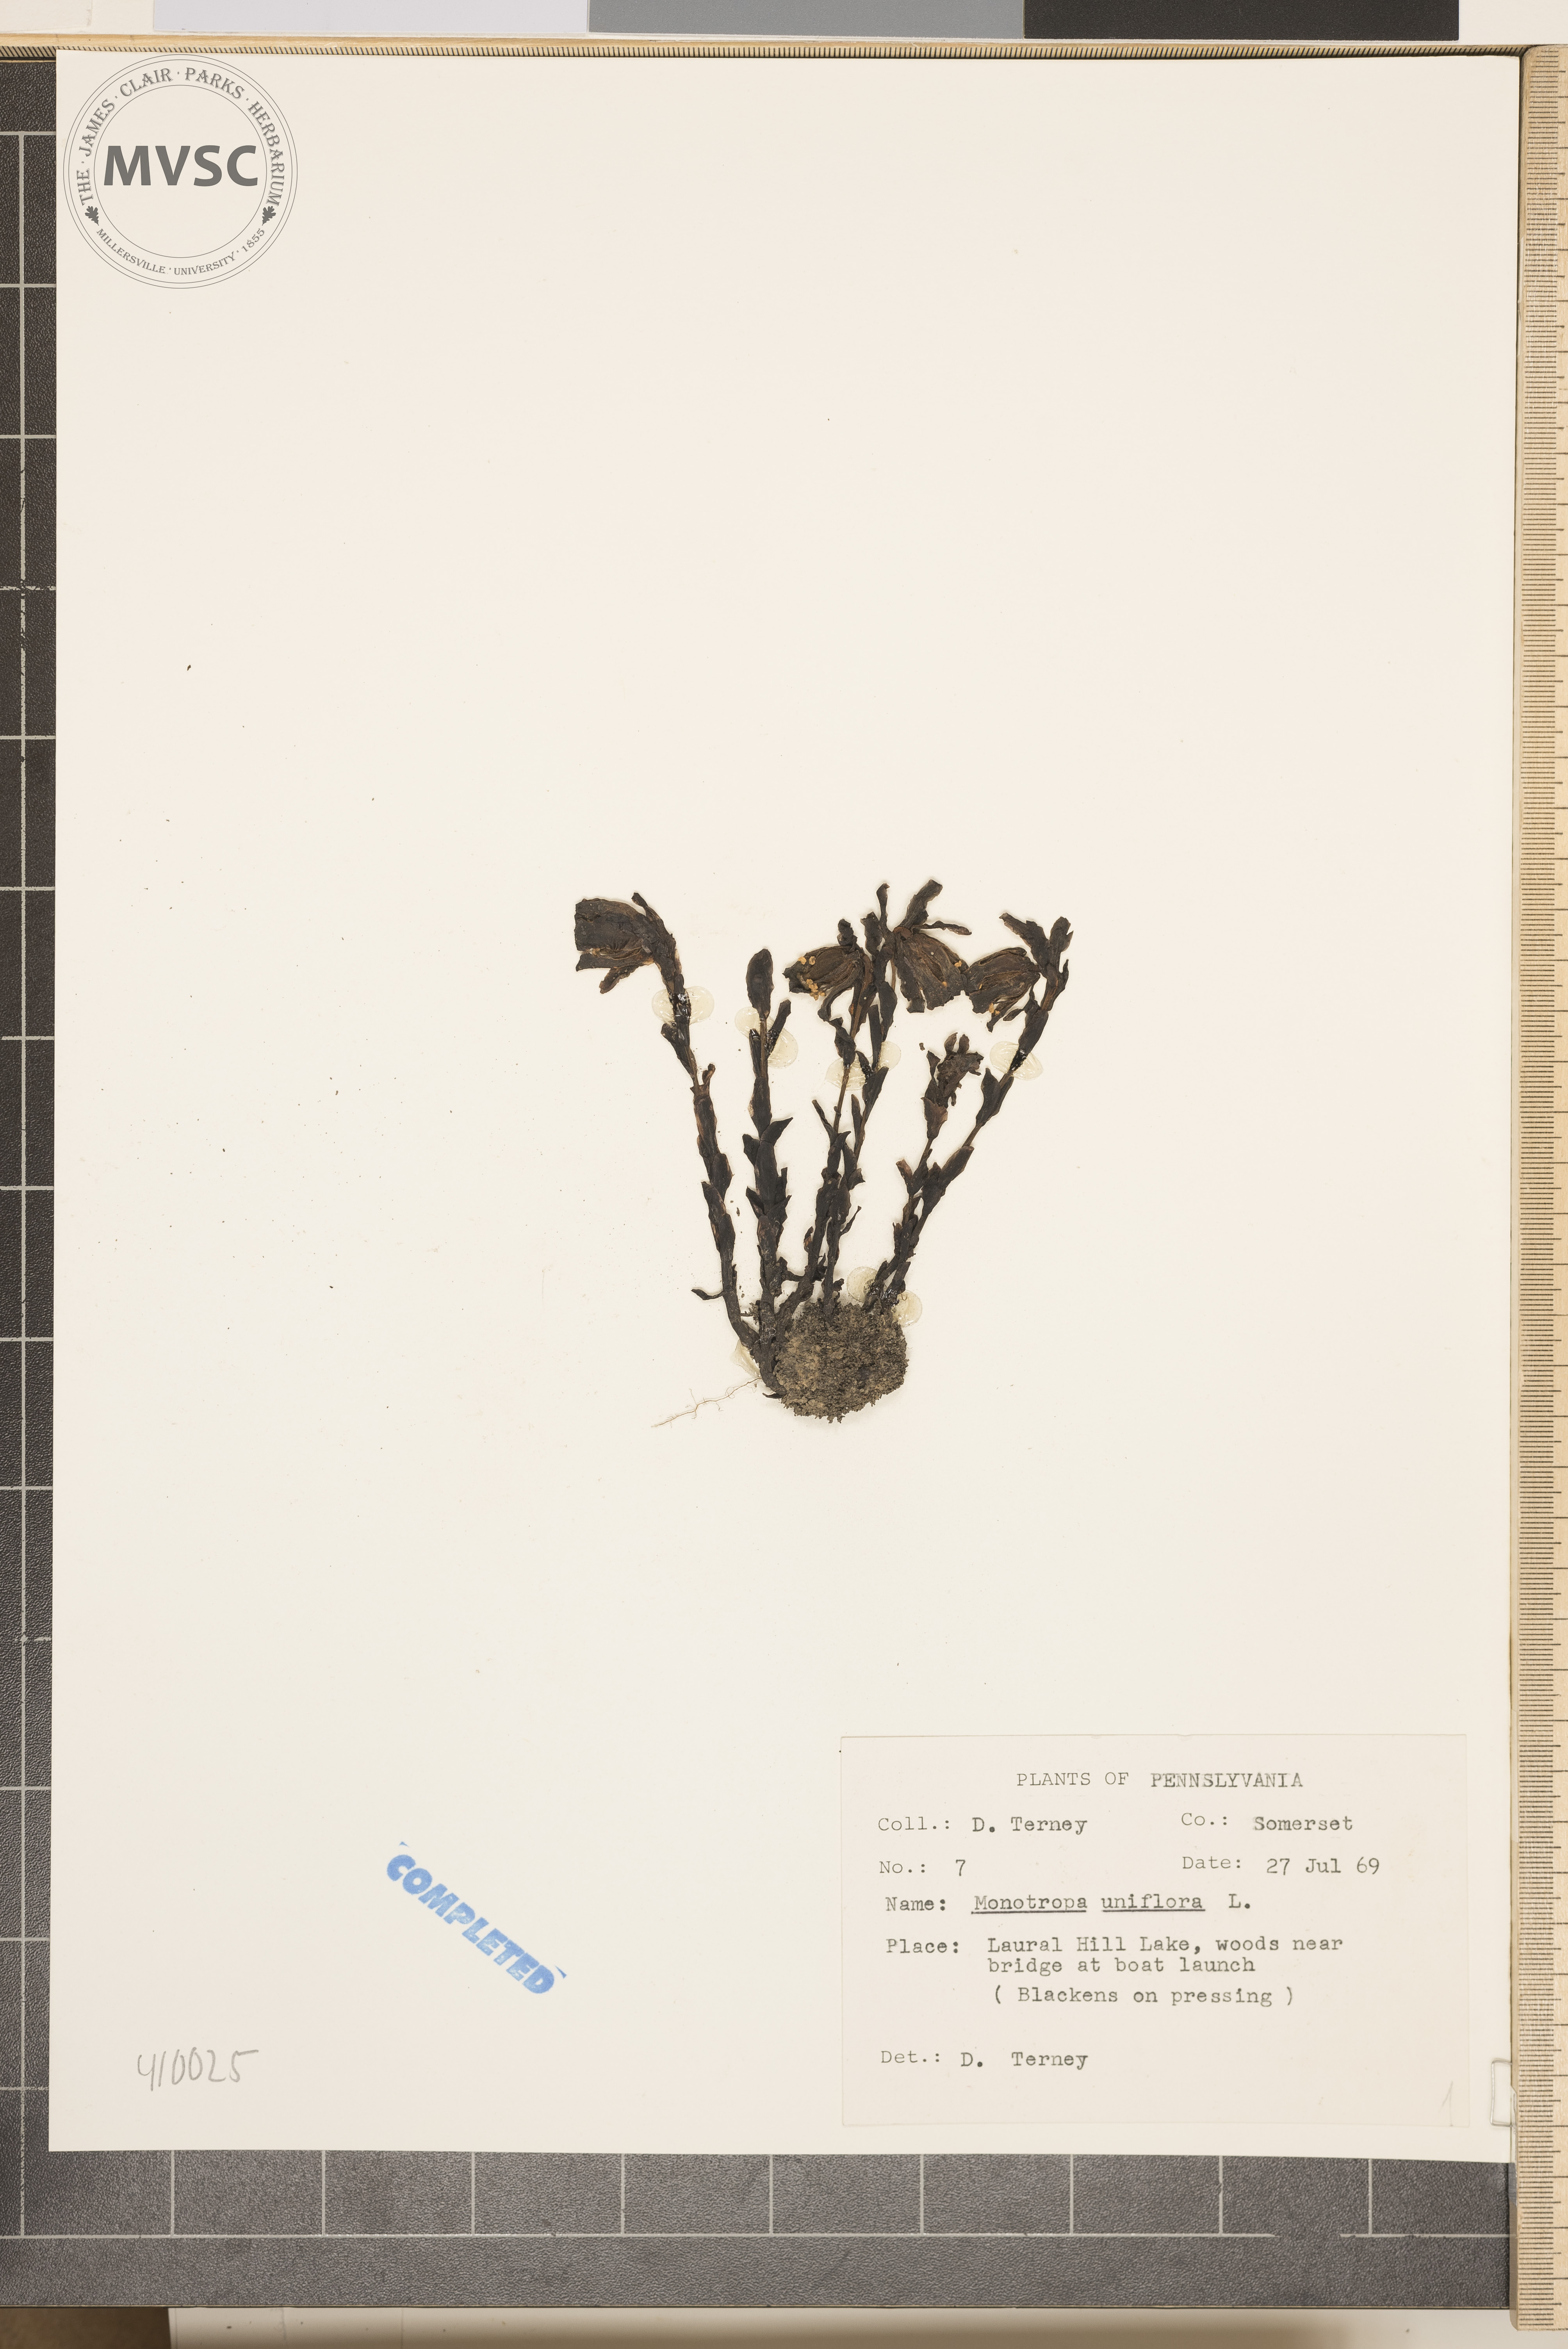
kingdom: Plantae
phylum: Tracheophyta
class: Magnoliopsida
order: Ericales
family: Ericaceae
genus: Monotropa
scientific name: Monotropa uniflora
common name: Convulsion root
